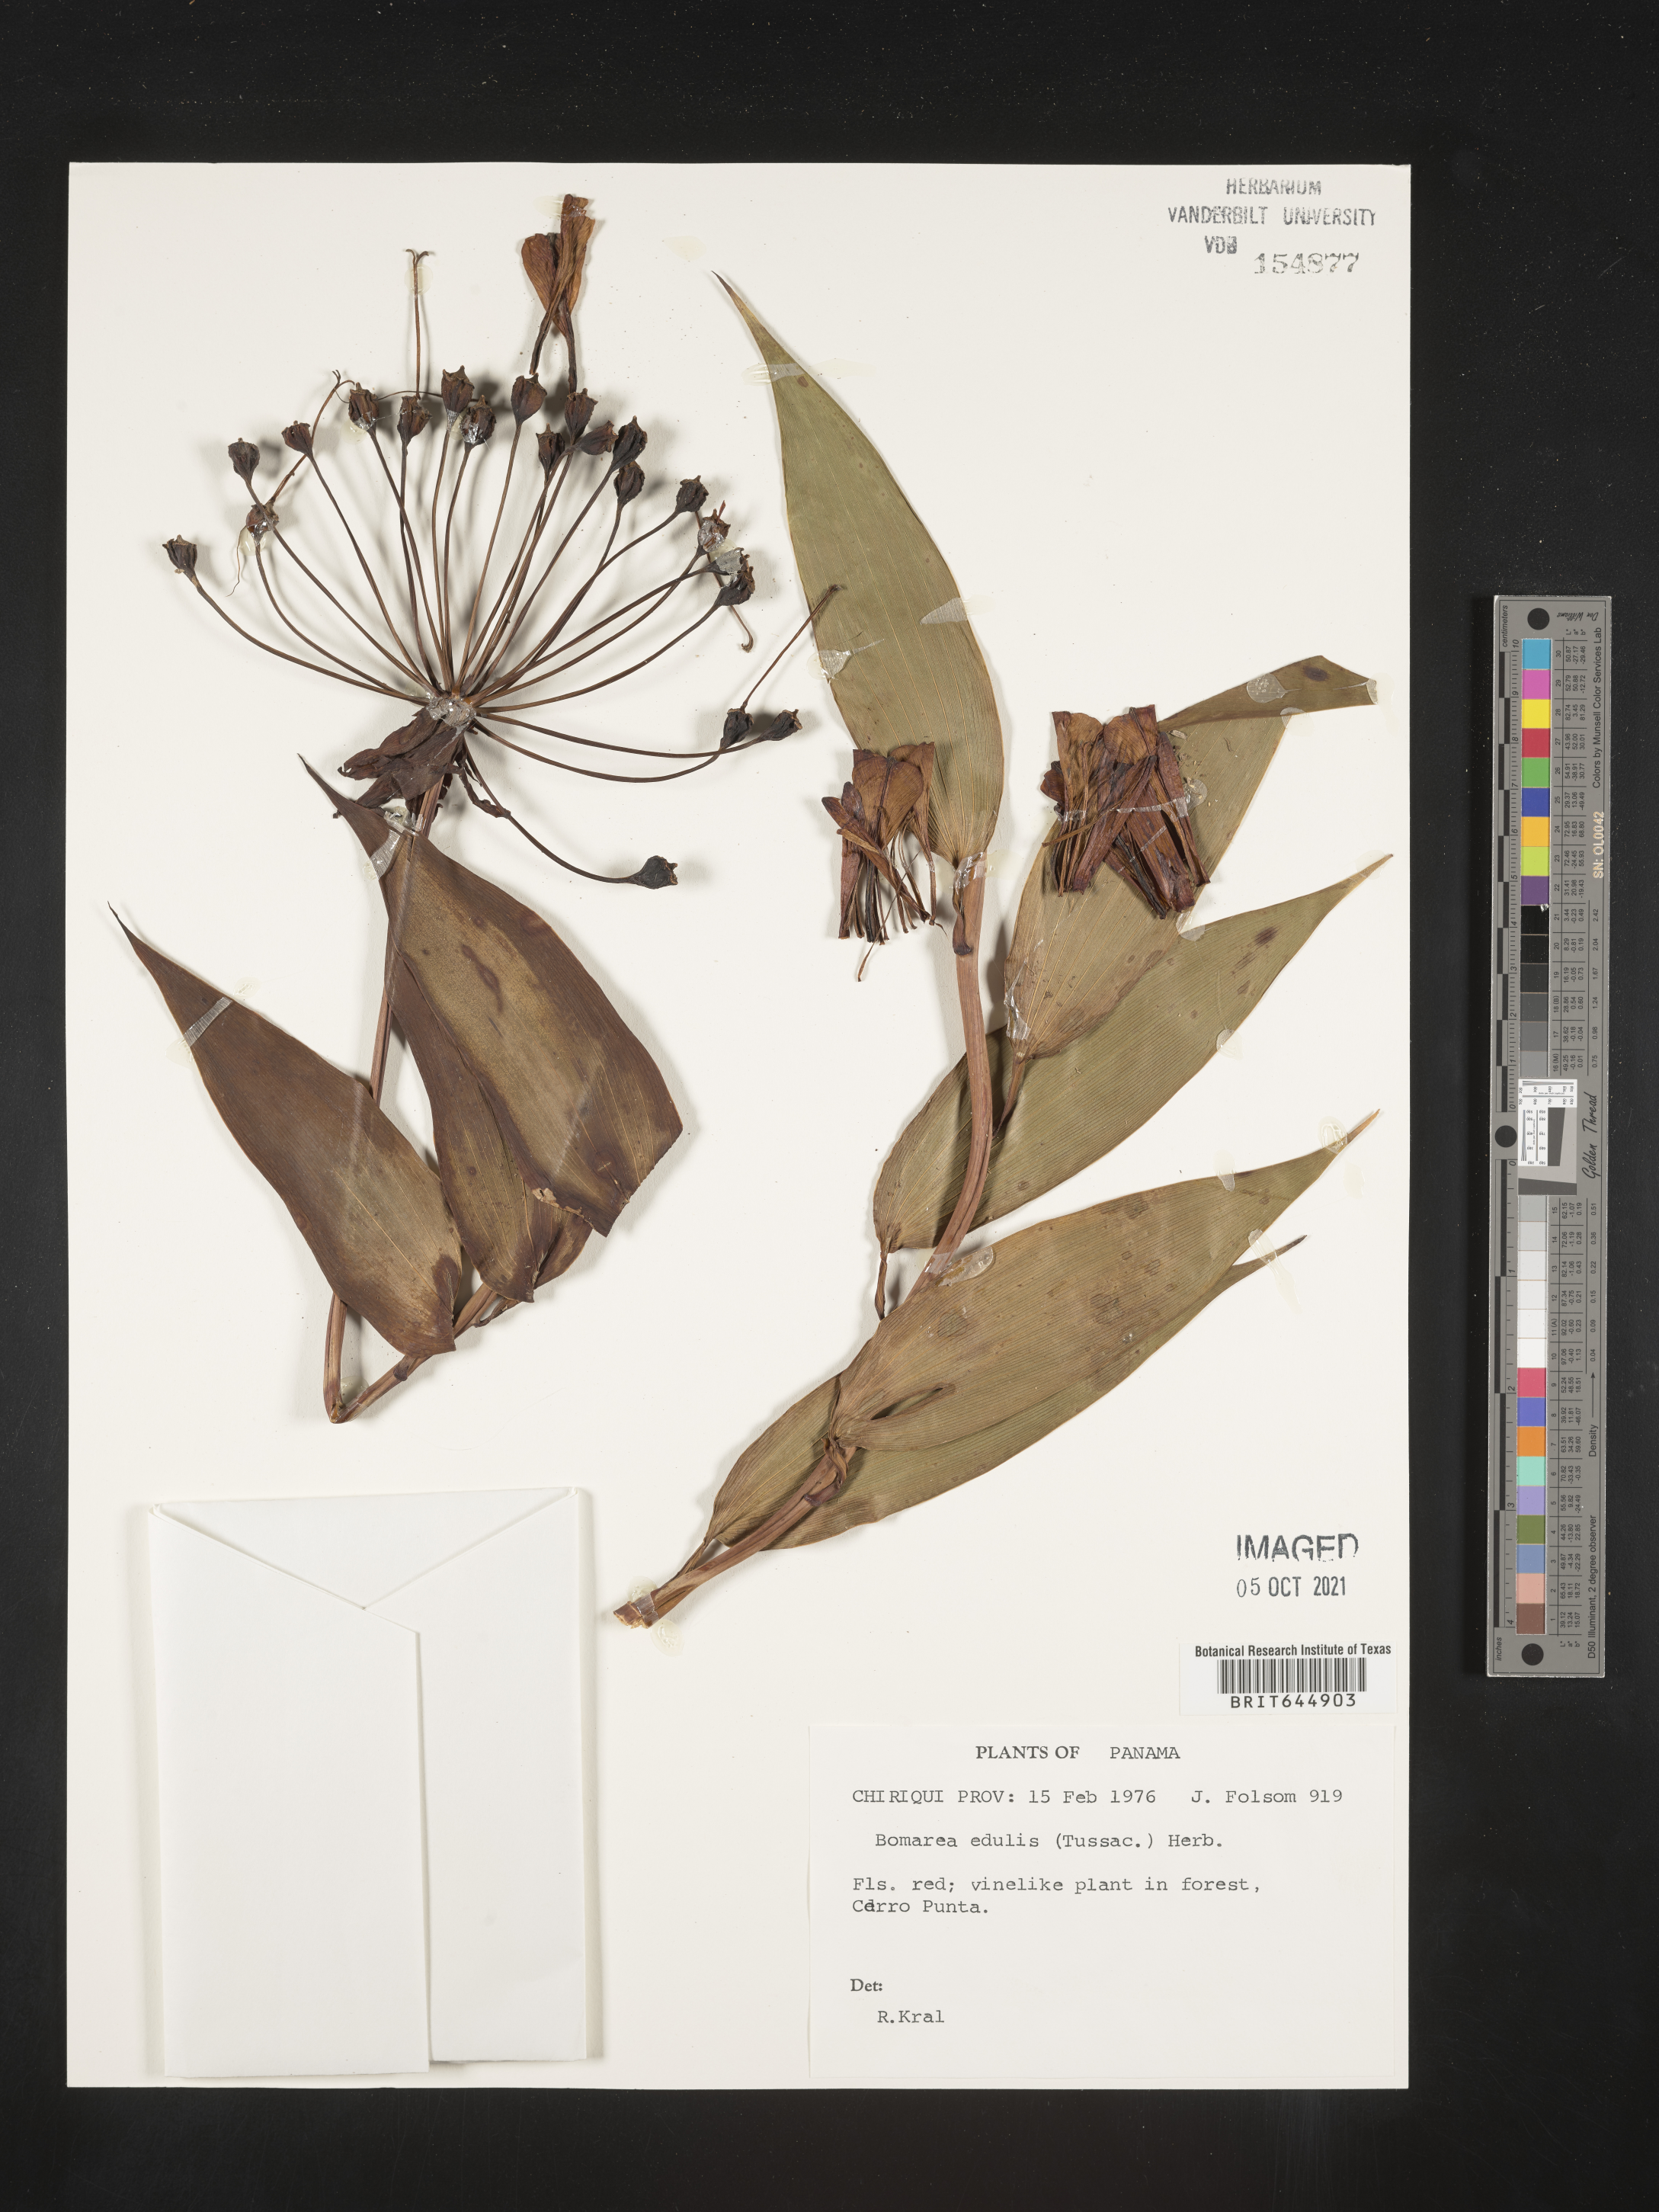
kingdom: Plantae
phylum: Tracheophyta
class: Liliopsida
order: Liliales
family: Alstroemeriaceae
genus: Bomarea
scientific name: Bomarea edulis
